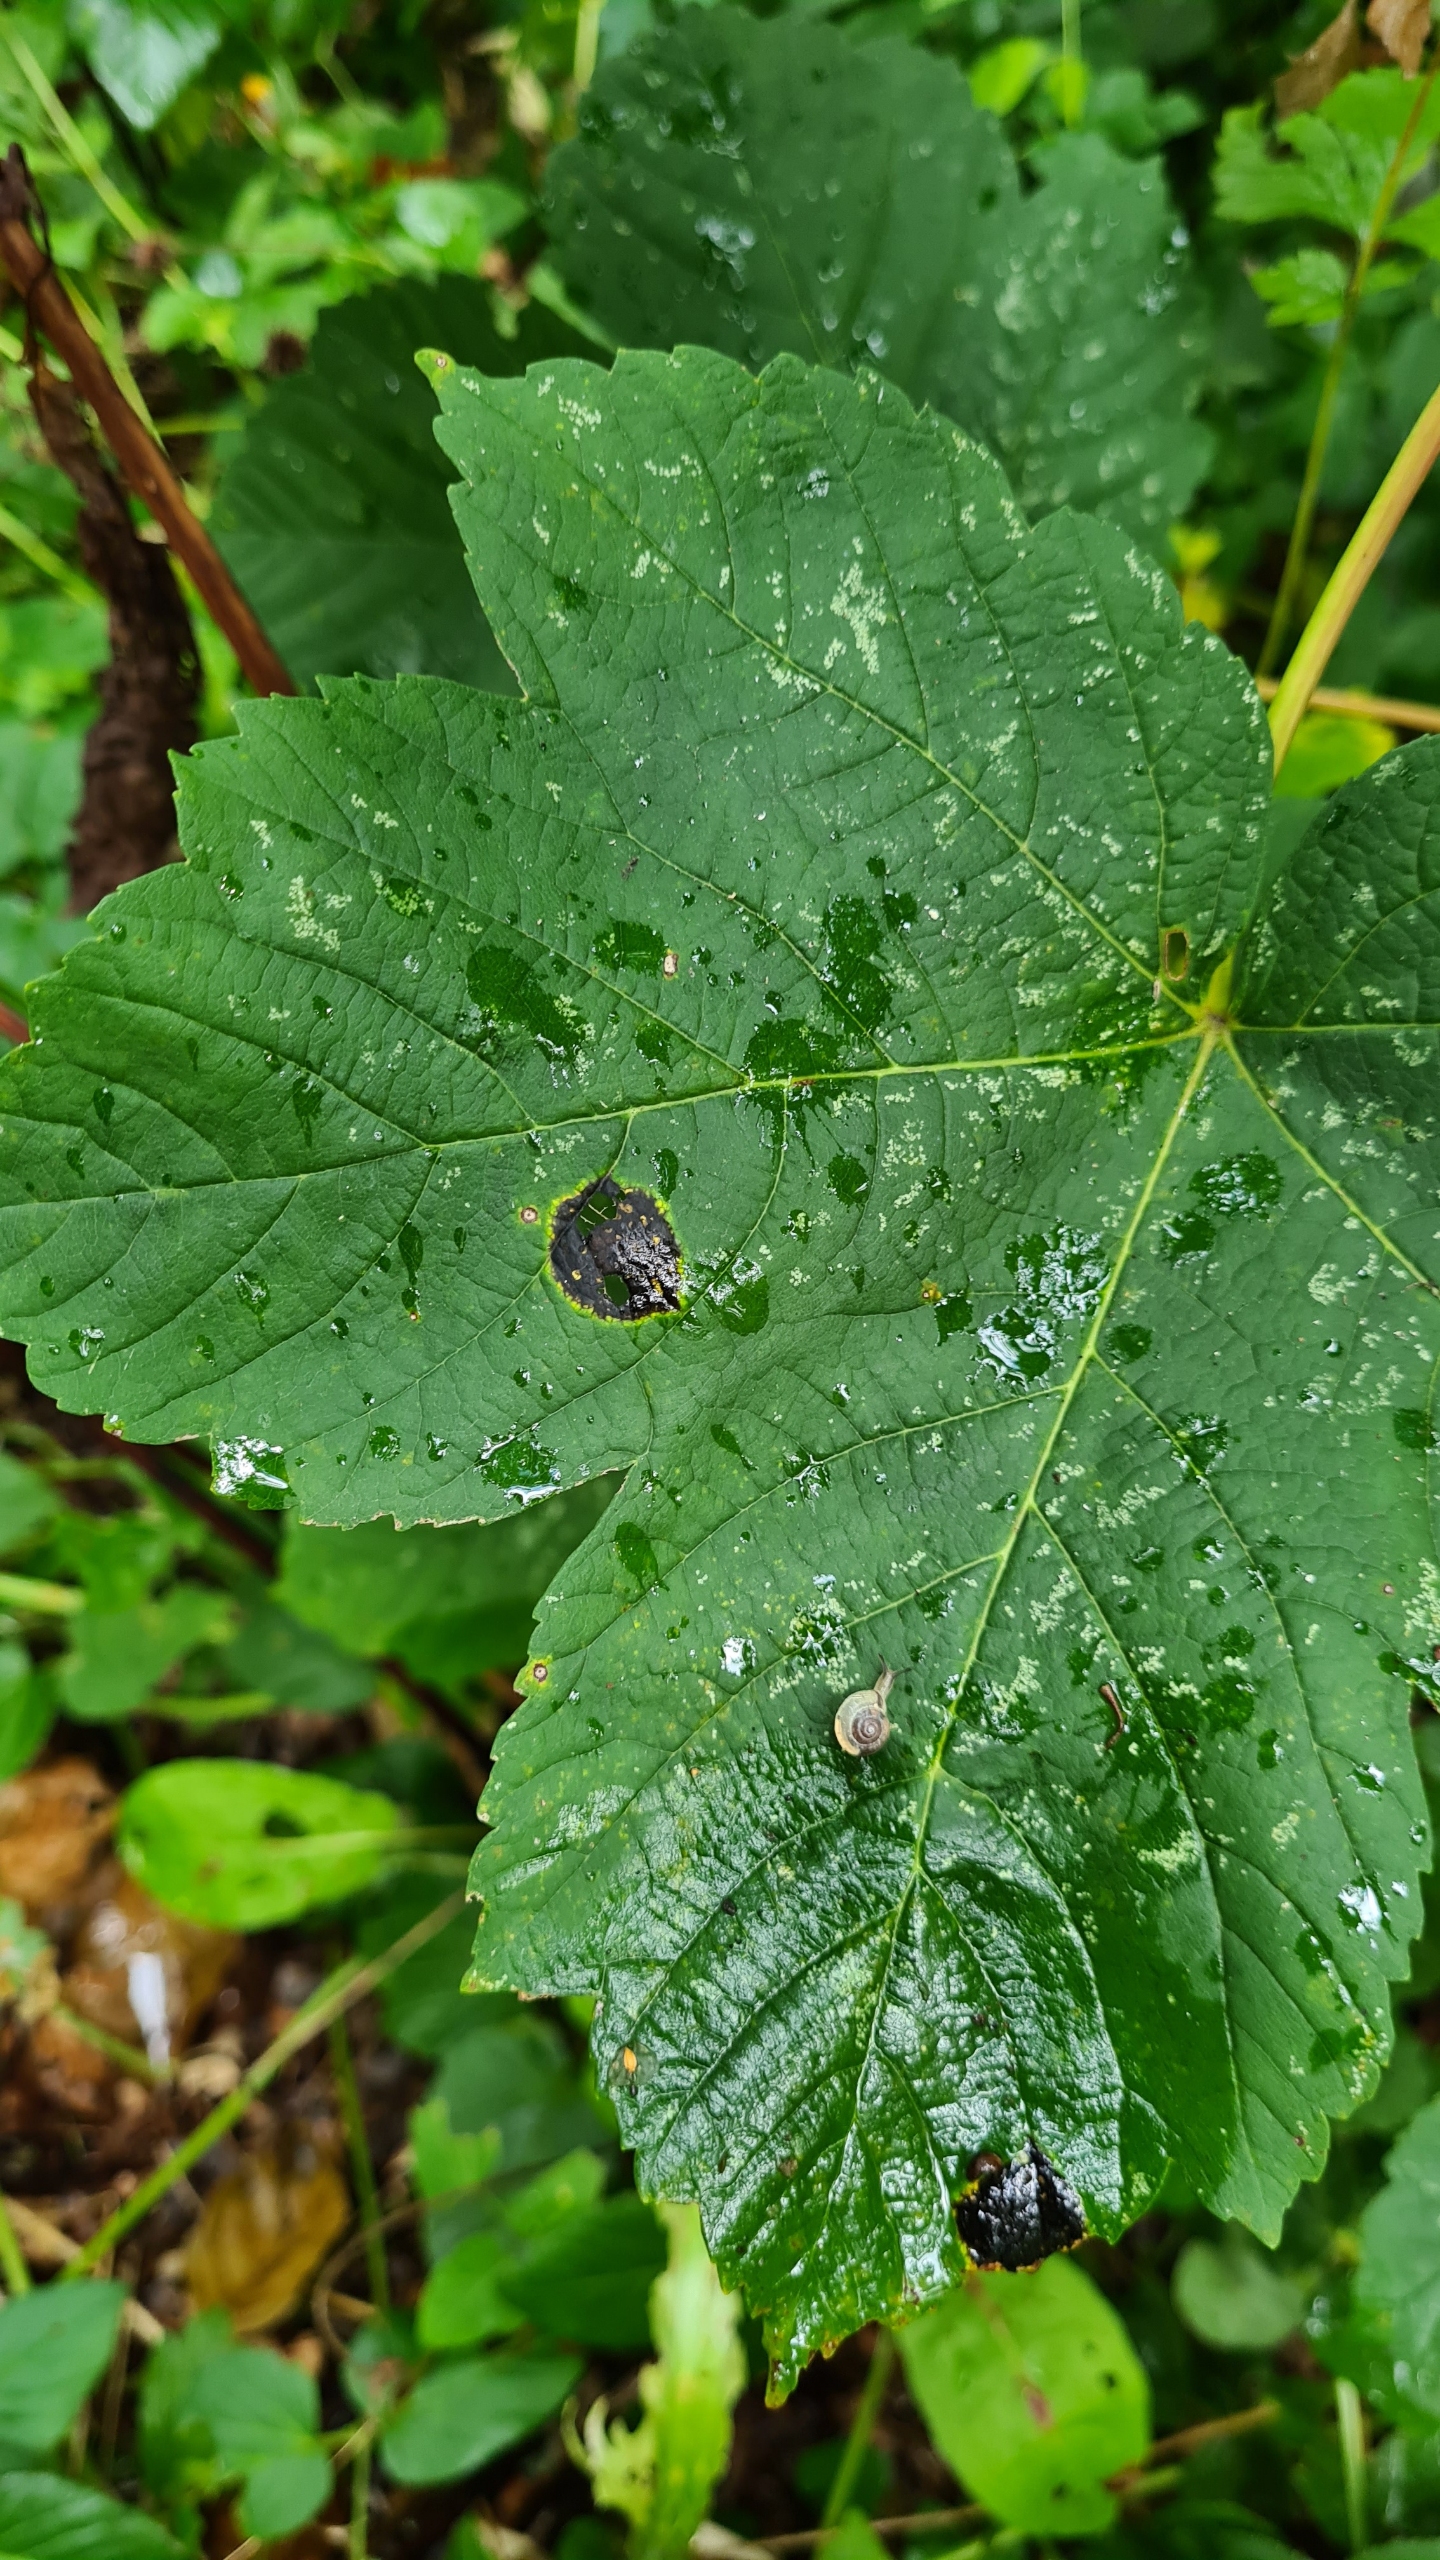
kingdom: Fungi
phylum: Ascomycota
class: Leotiomycetes
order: Rhytismatales
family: Rhytismataceae
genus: Rhytisma
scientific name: Rhytisma acerinum
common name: Ahorn-rynkeplet
